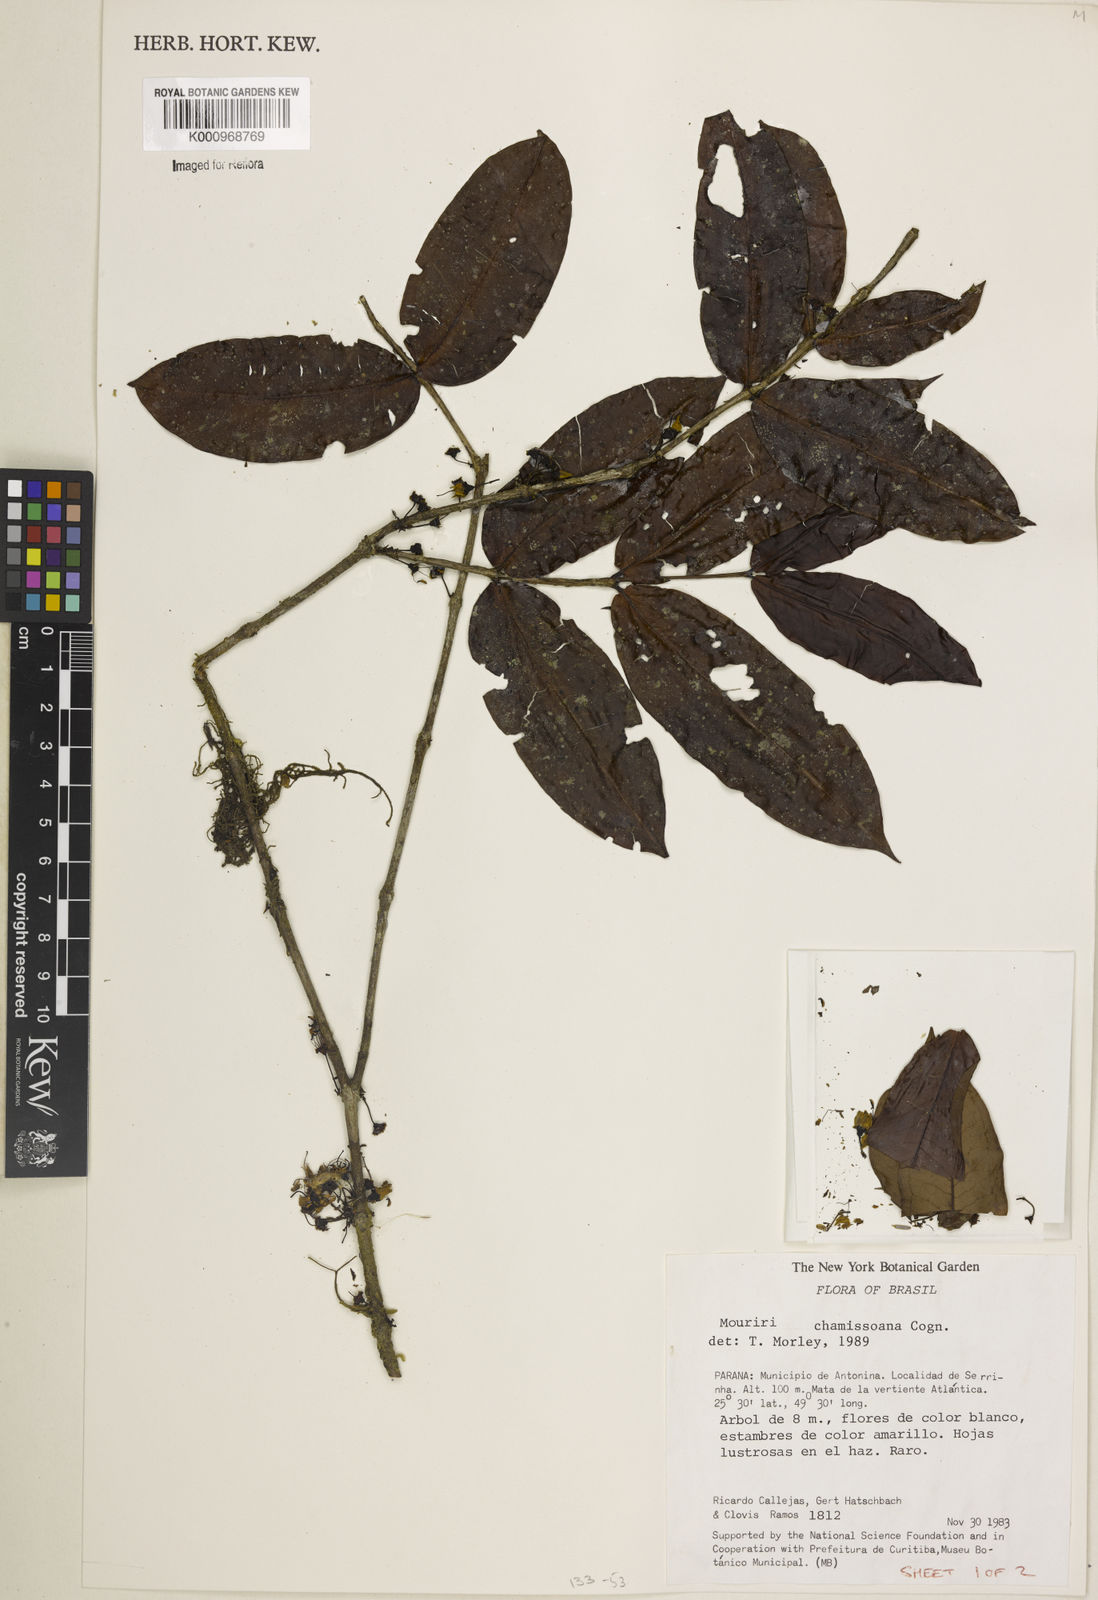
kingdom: Plantae
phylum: Tracheophyta
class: Magnoliopsida
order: Myrtales
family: Melastomataceae
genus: Mouriri
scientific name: Mouriri chamissoana
